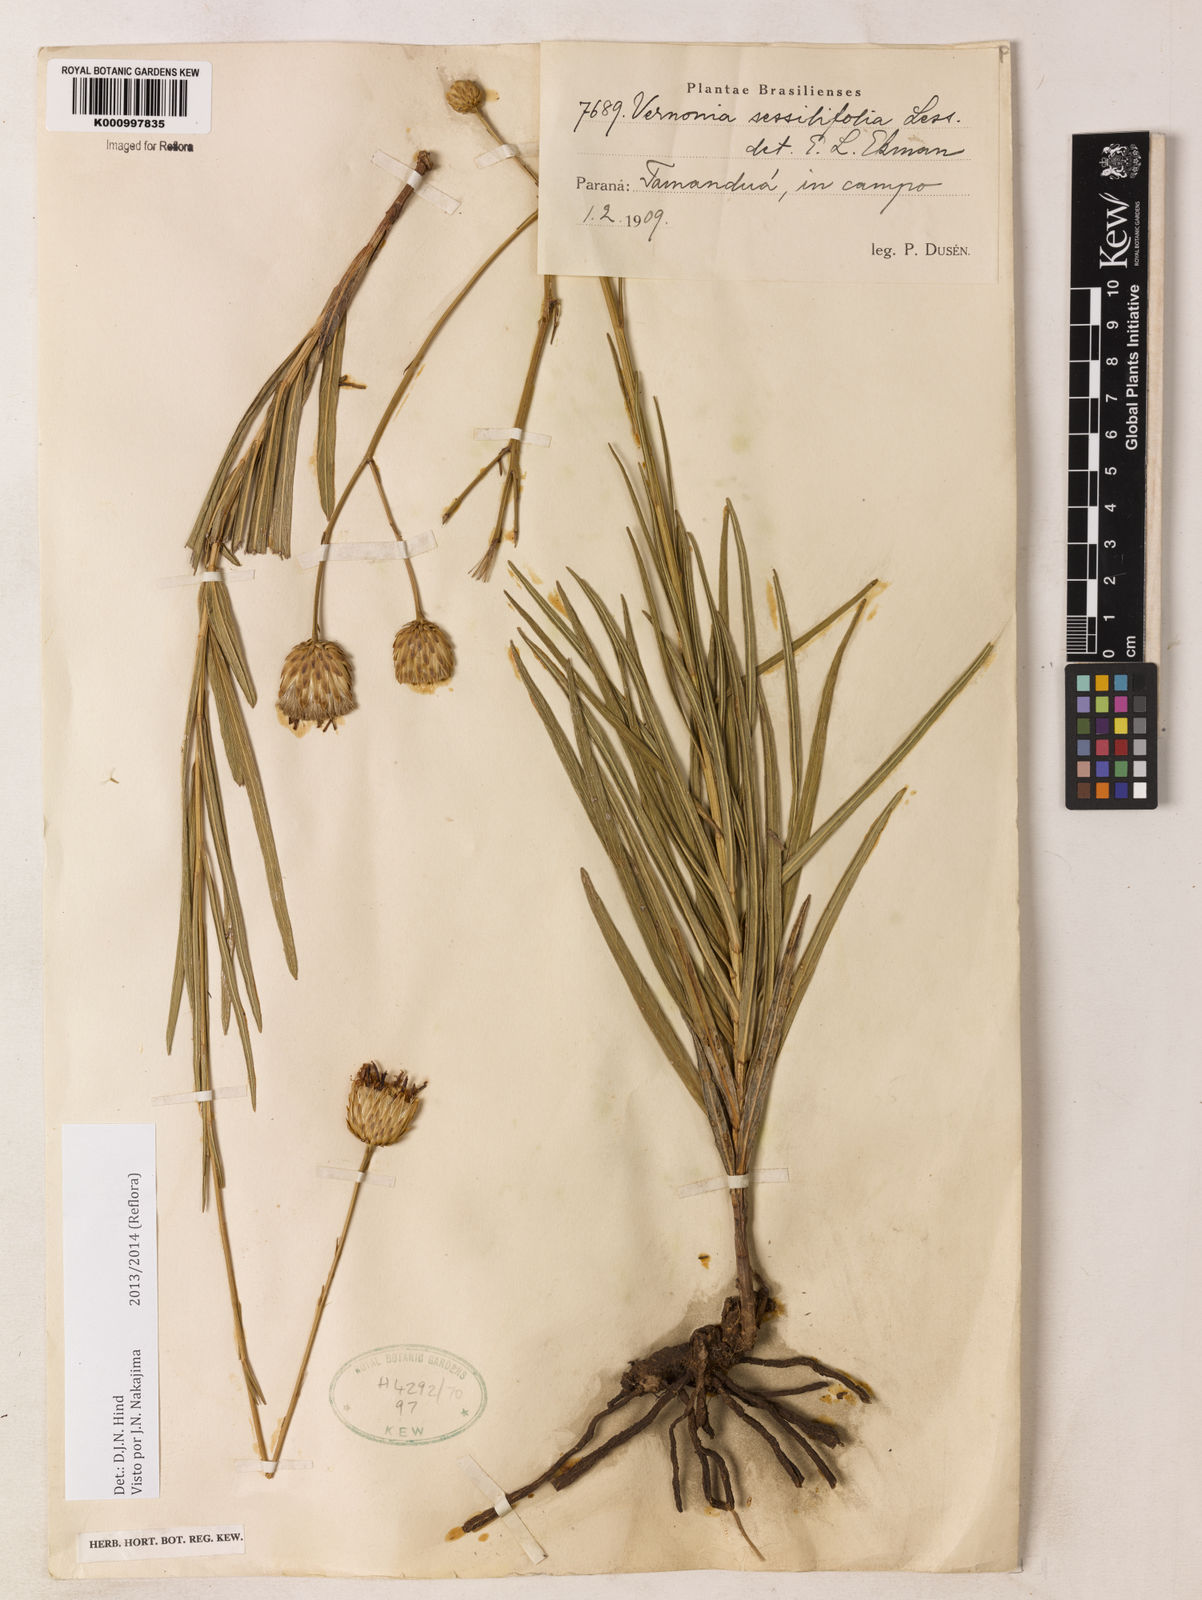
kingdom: Plantae
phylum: Tracheophyta
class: Magnoliopsida
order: Asterales
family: Asteraceae
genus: Lepidaploa
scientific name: Lepidaploa remotiflora
